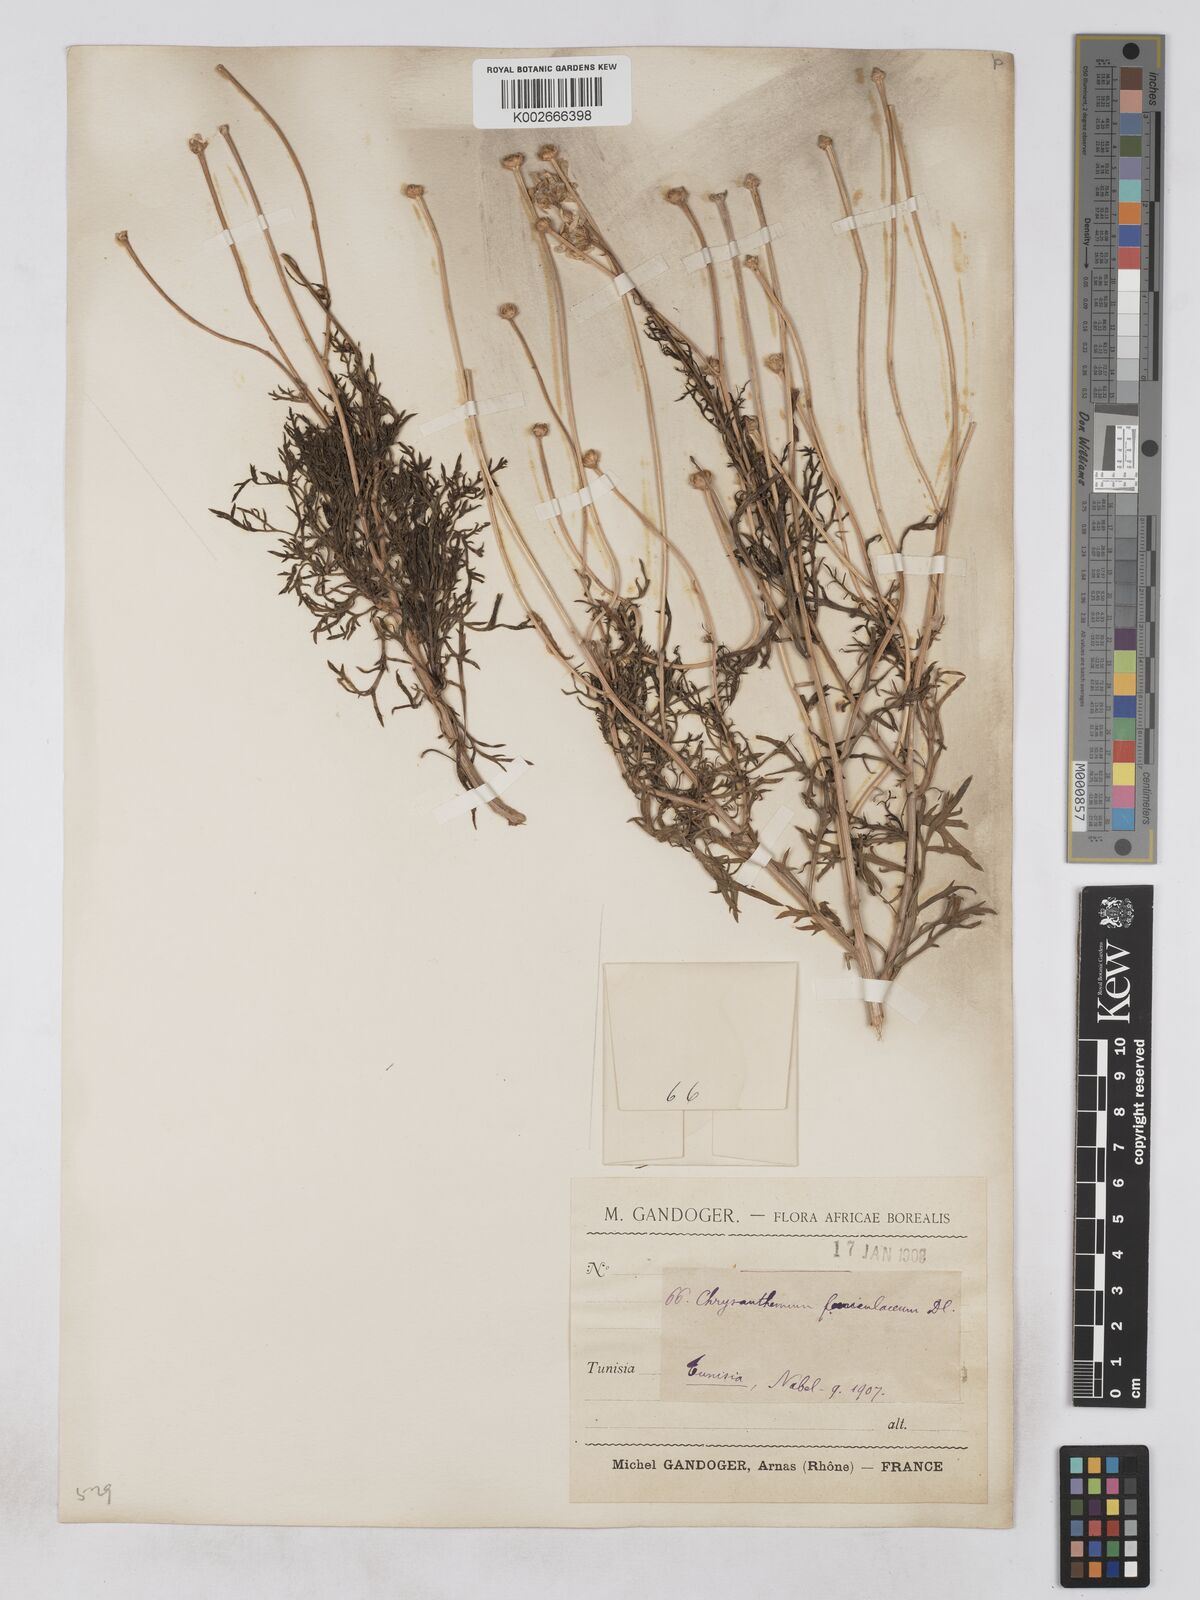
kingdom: Plantae
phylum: Tracheophyta
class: Magnoliopsida
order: Asterales
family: Asteraceae
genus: Argyranthemum
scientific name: Argyranthemum foeniculaceum
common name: Canary island marguerite
